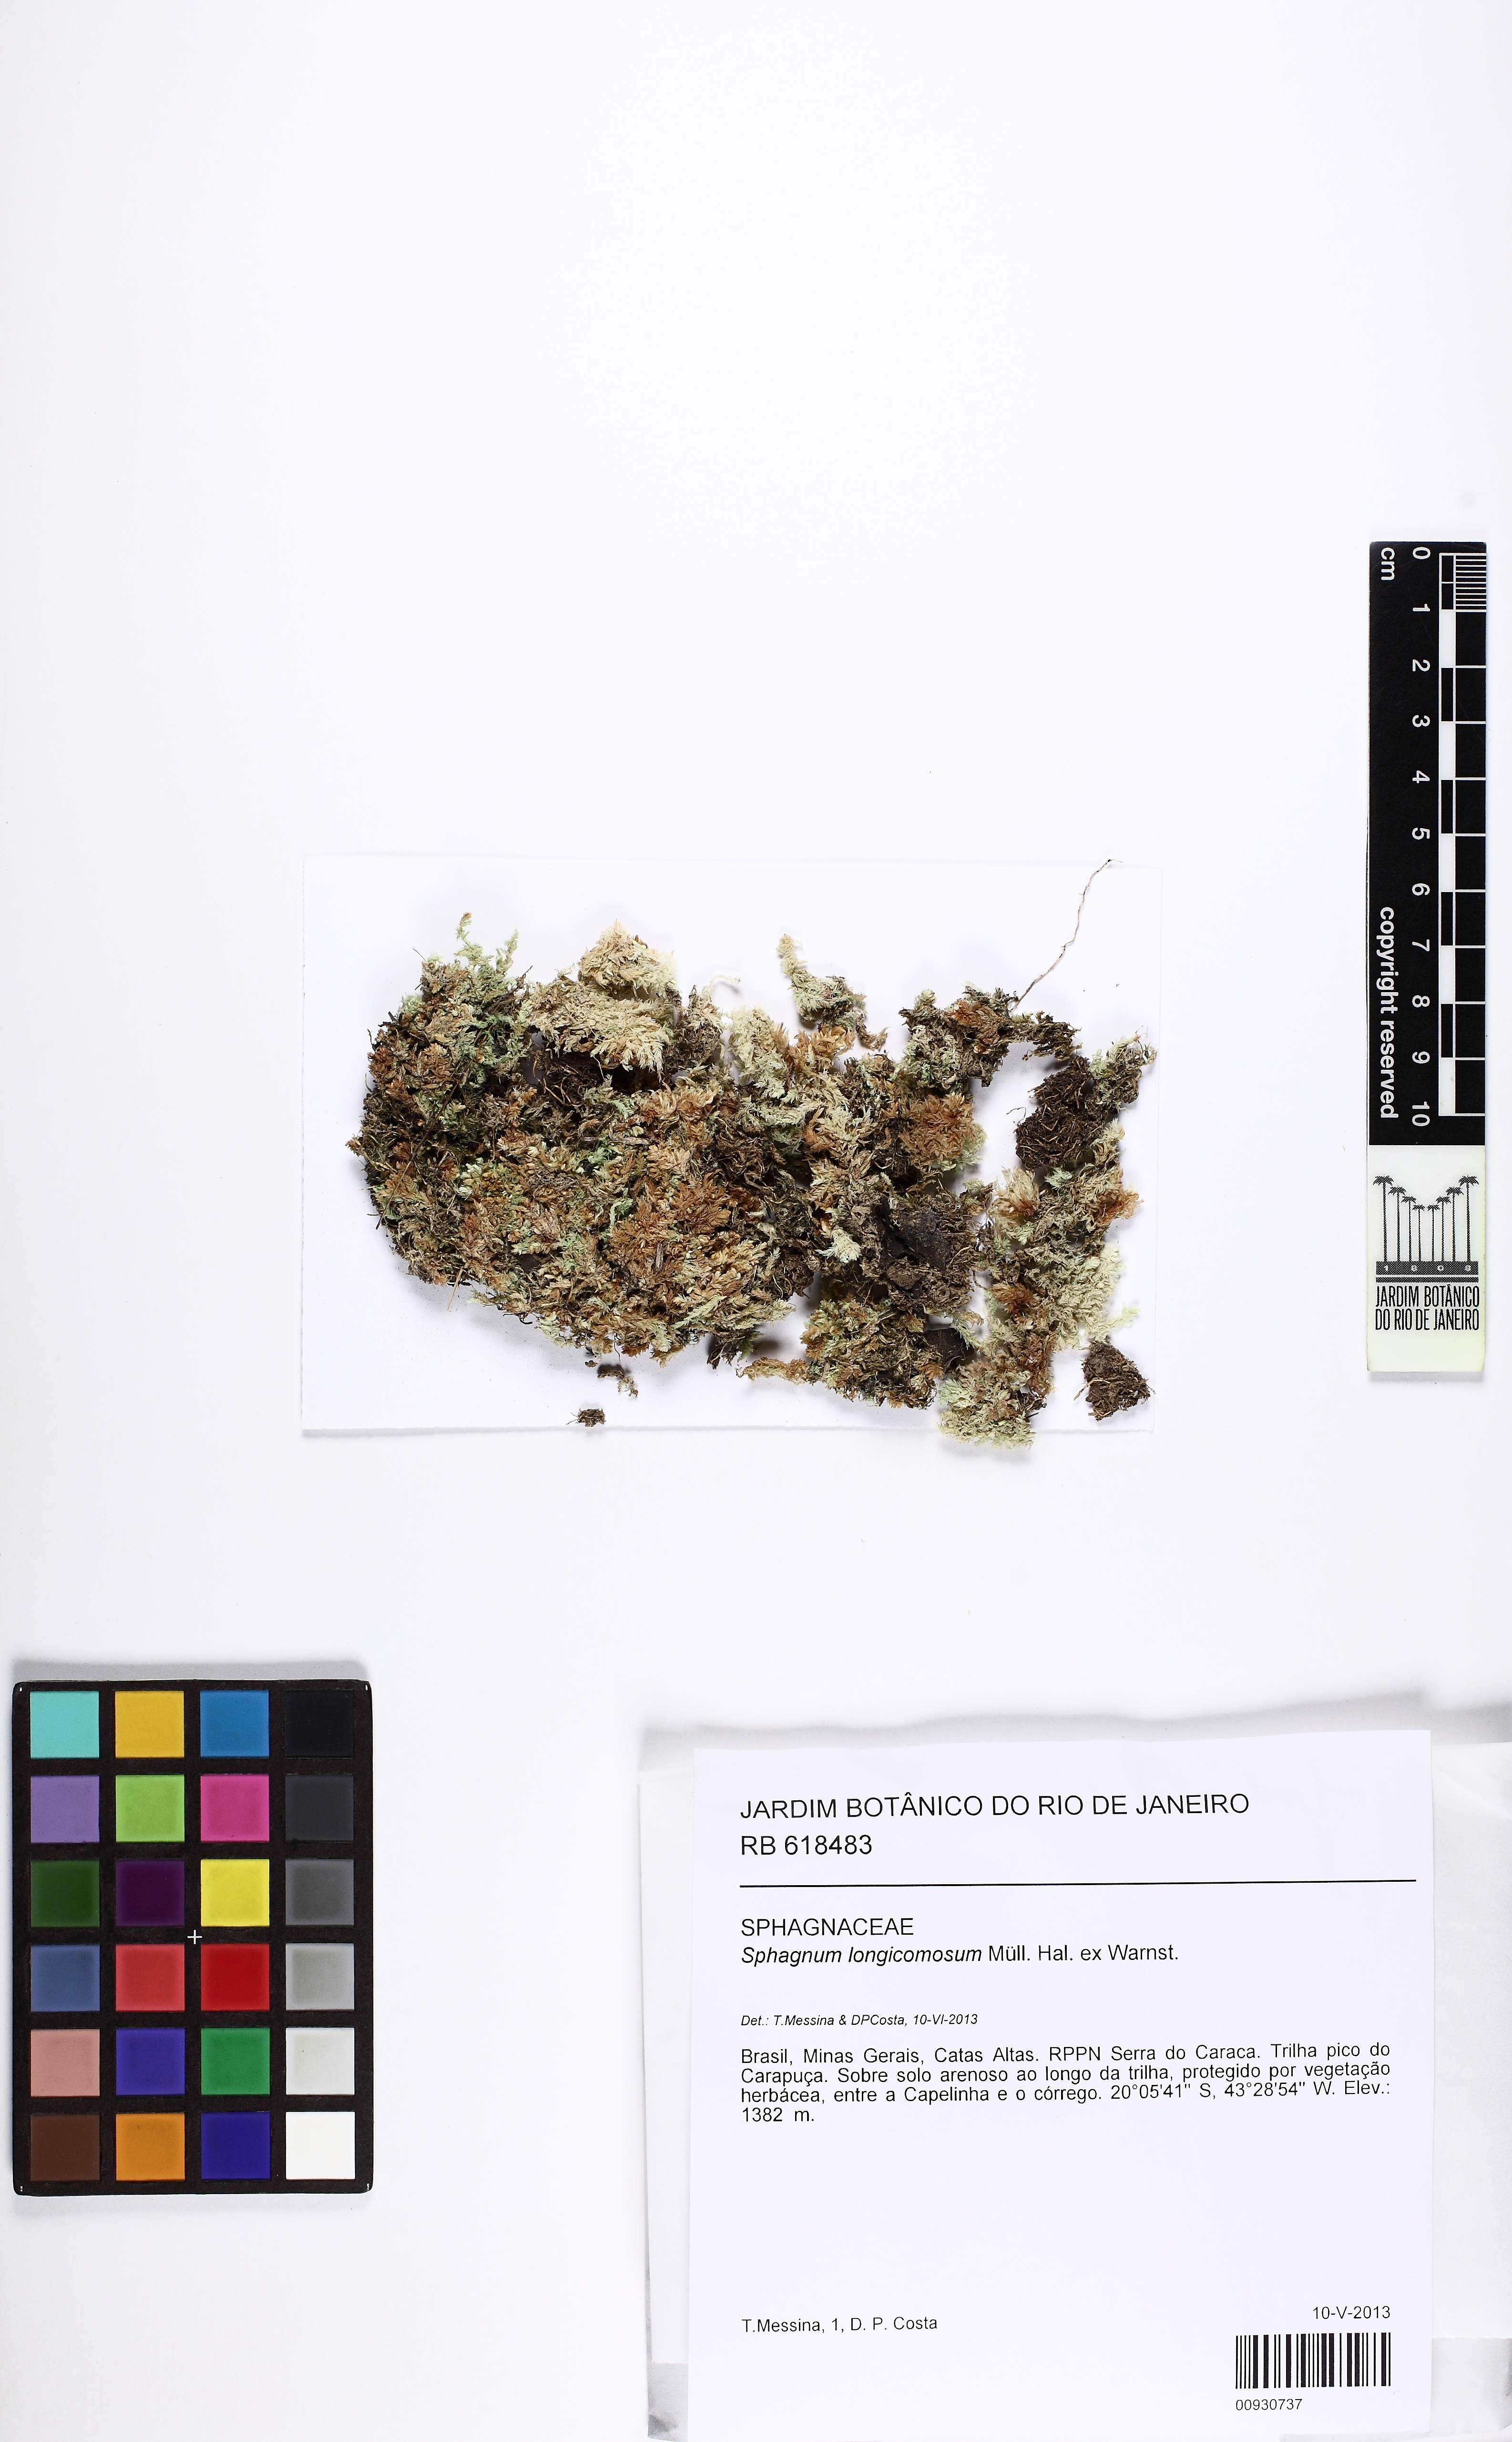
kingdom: Plantae
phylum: Bryophyta
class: Sphagnopsida
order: Sphagnales
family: Sphagnaceae
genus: Sphagnum
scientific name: Sphagnum longicomosum
